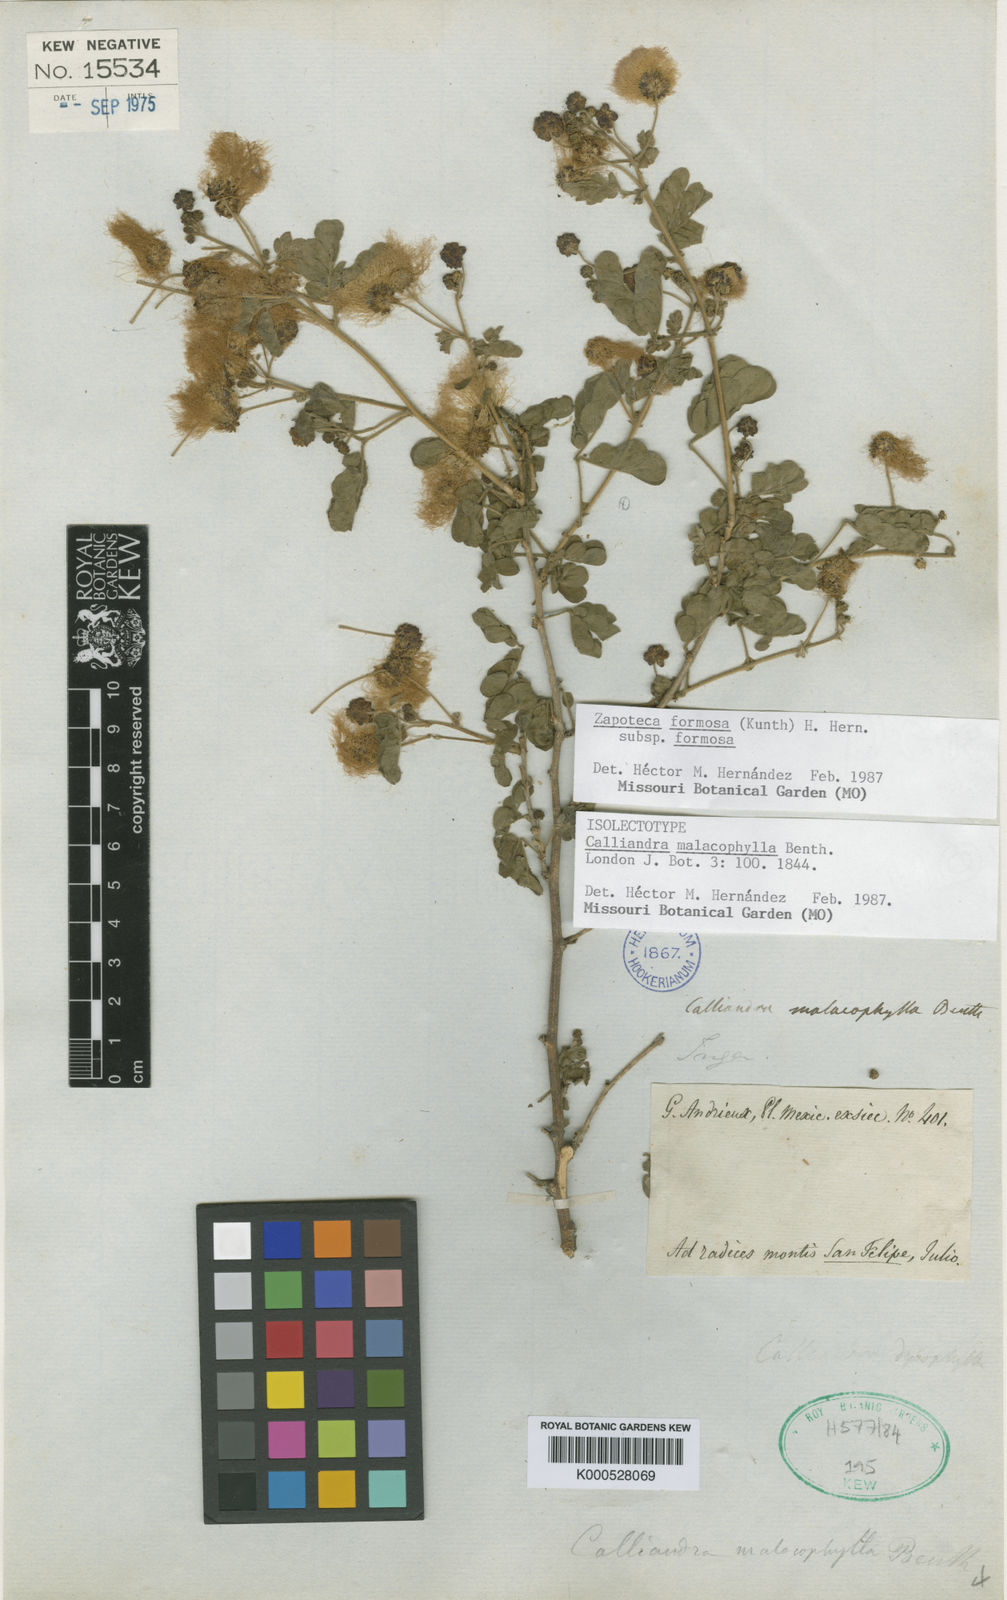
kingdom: Plantae
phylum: Tracheophyta
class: Magnoliopsida
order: Fabales
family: Fabaceae
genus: Zapoteca
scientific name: Zapoteca formosa
